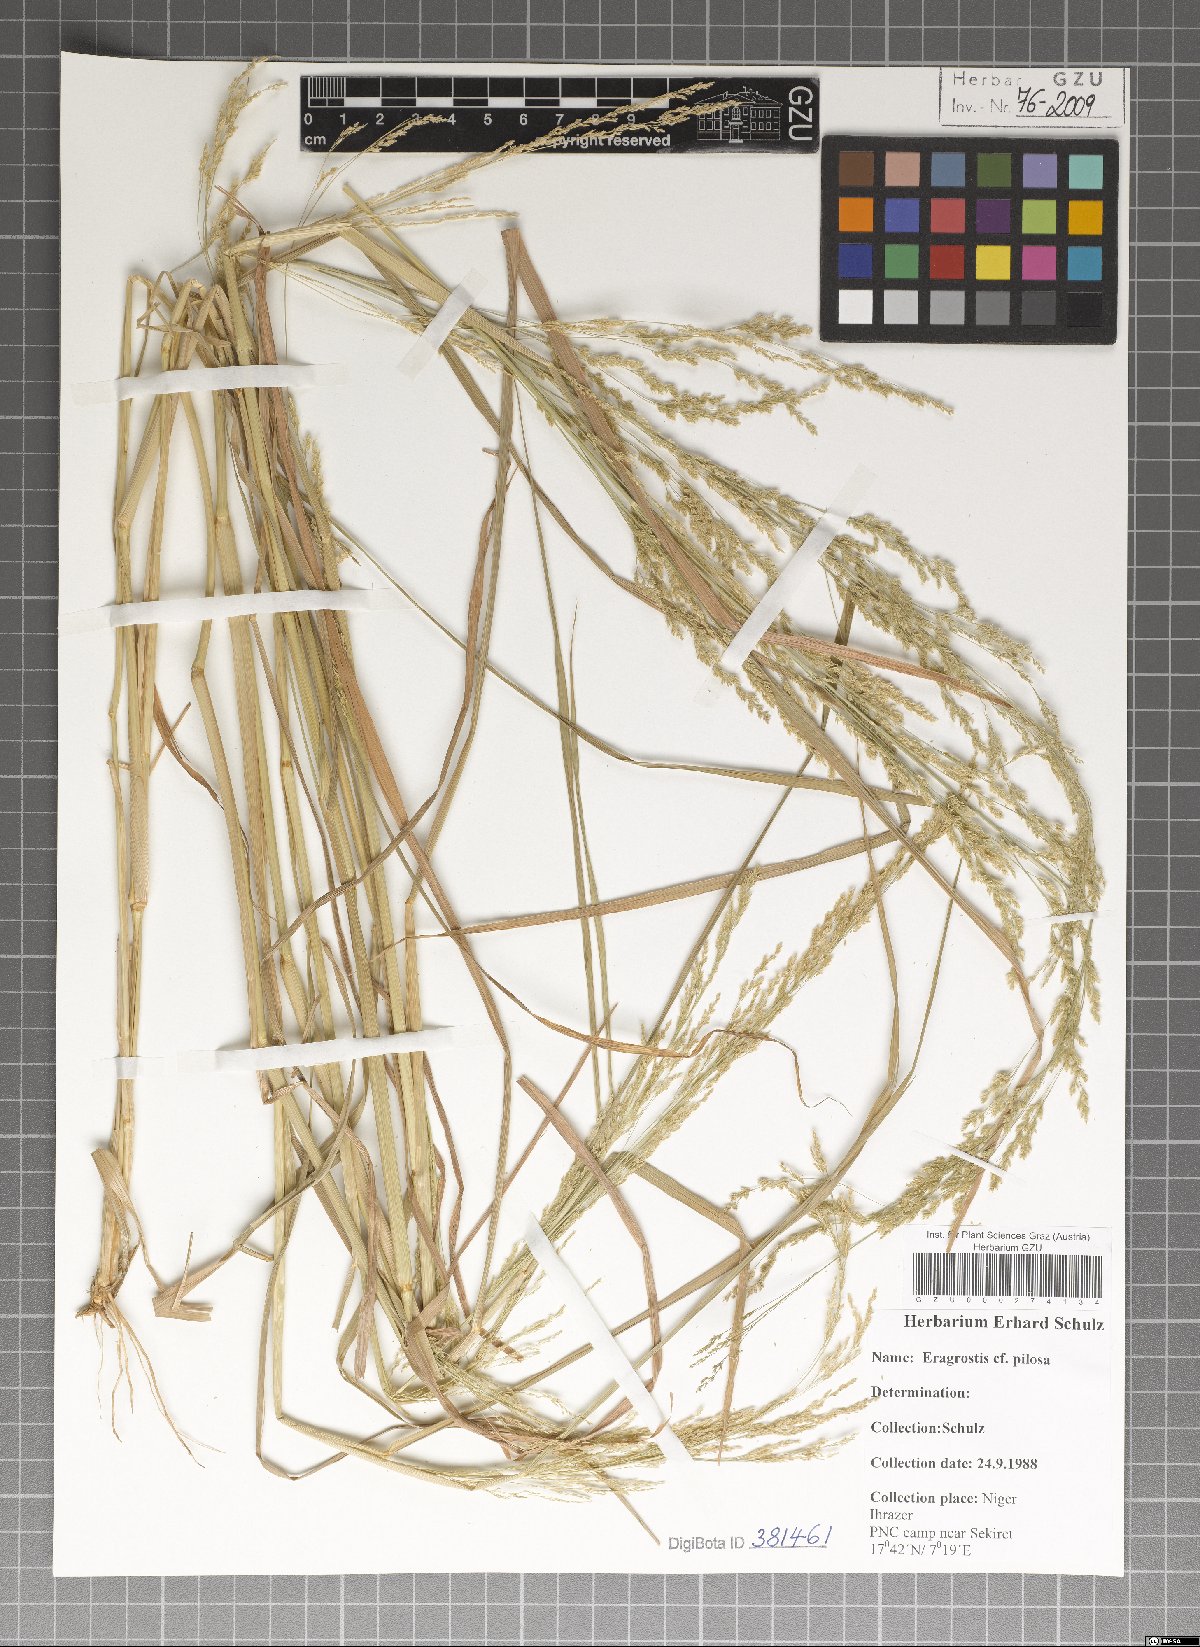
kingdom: Plantae
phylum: Tracheophyta
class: Liliopsida
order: Poales
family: Poaceae
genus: Eragrostis
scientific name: Eragrostis pilosa
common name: Indian lovegrass
